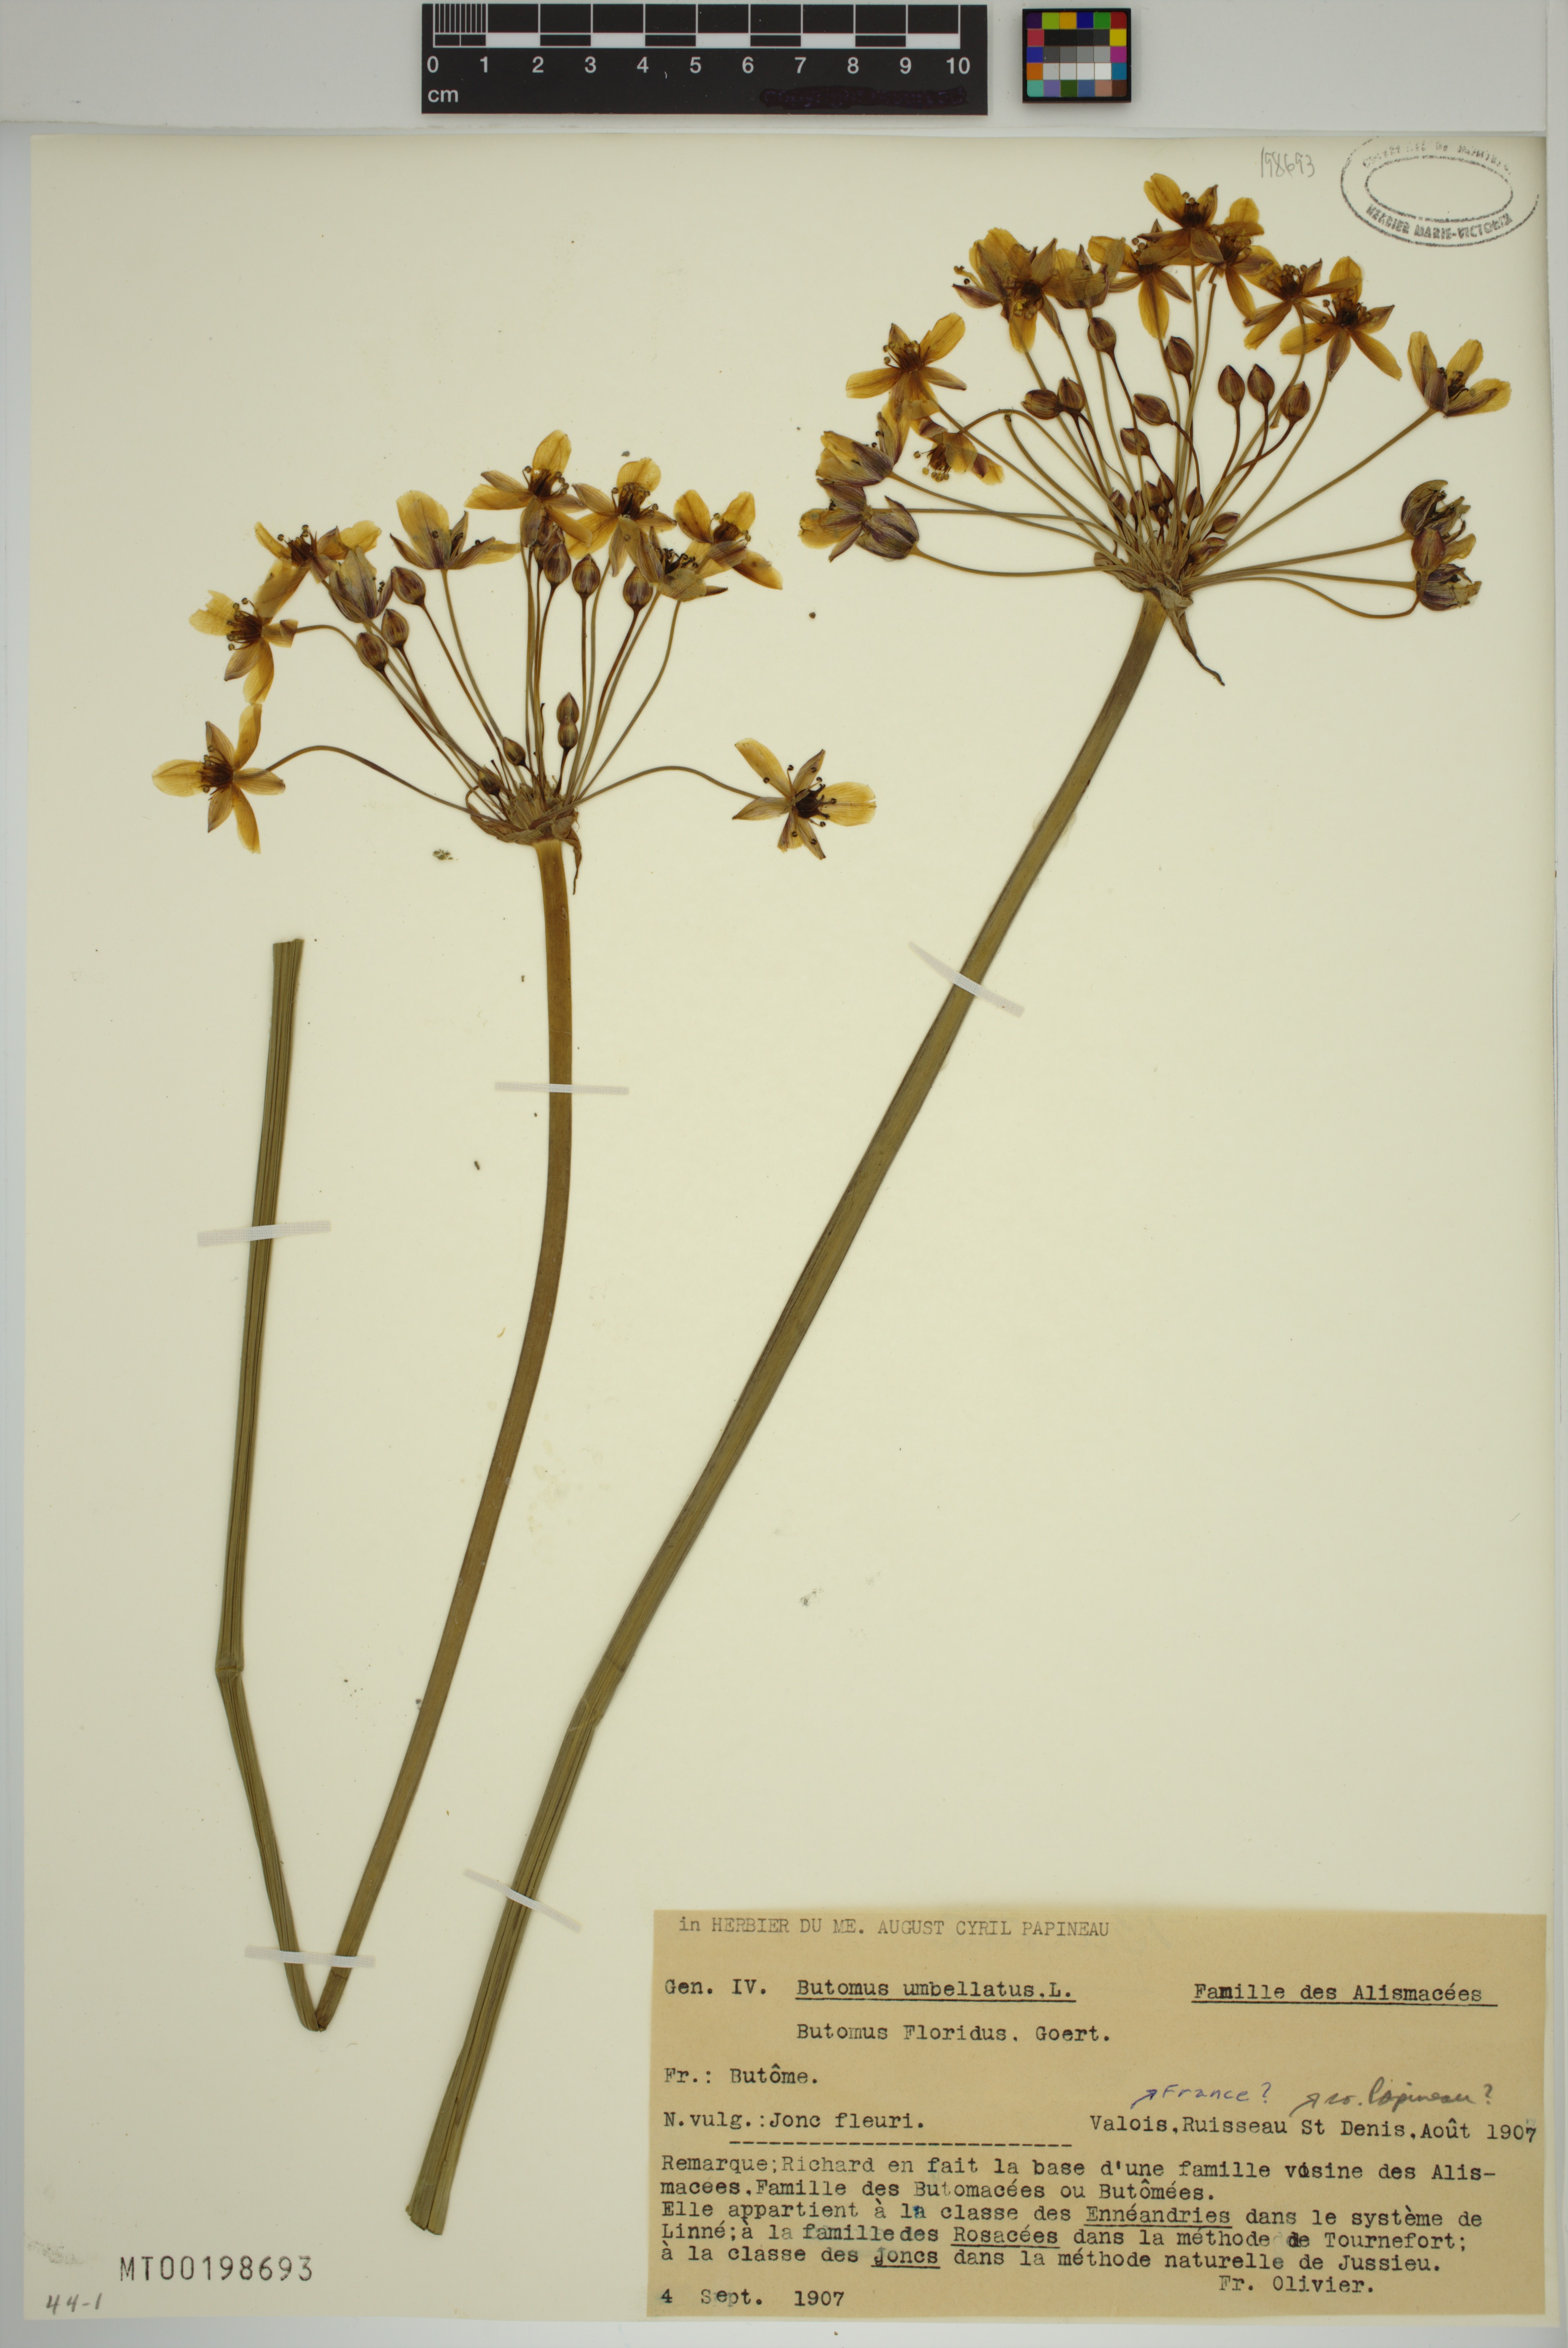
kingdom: Plantae
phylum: Tracheophyta
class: Liliopsida
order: Alismatales
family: Butomaceae
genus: Butomus
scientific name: Butomus umbellatus
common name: Flowering-rush
